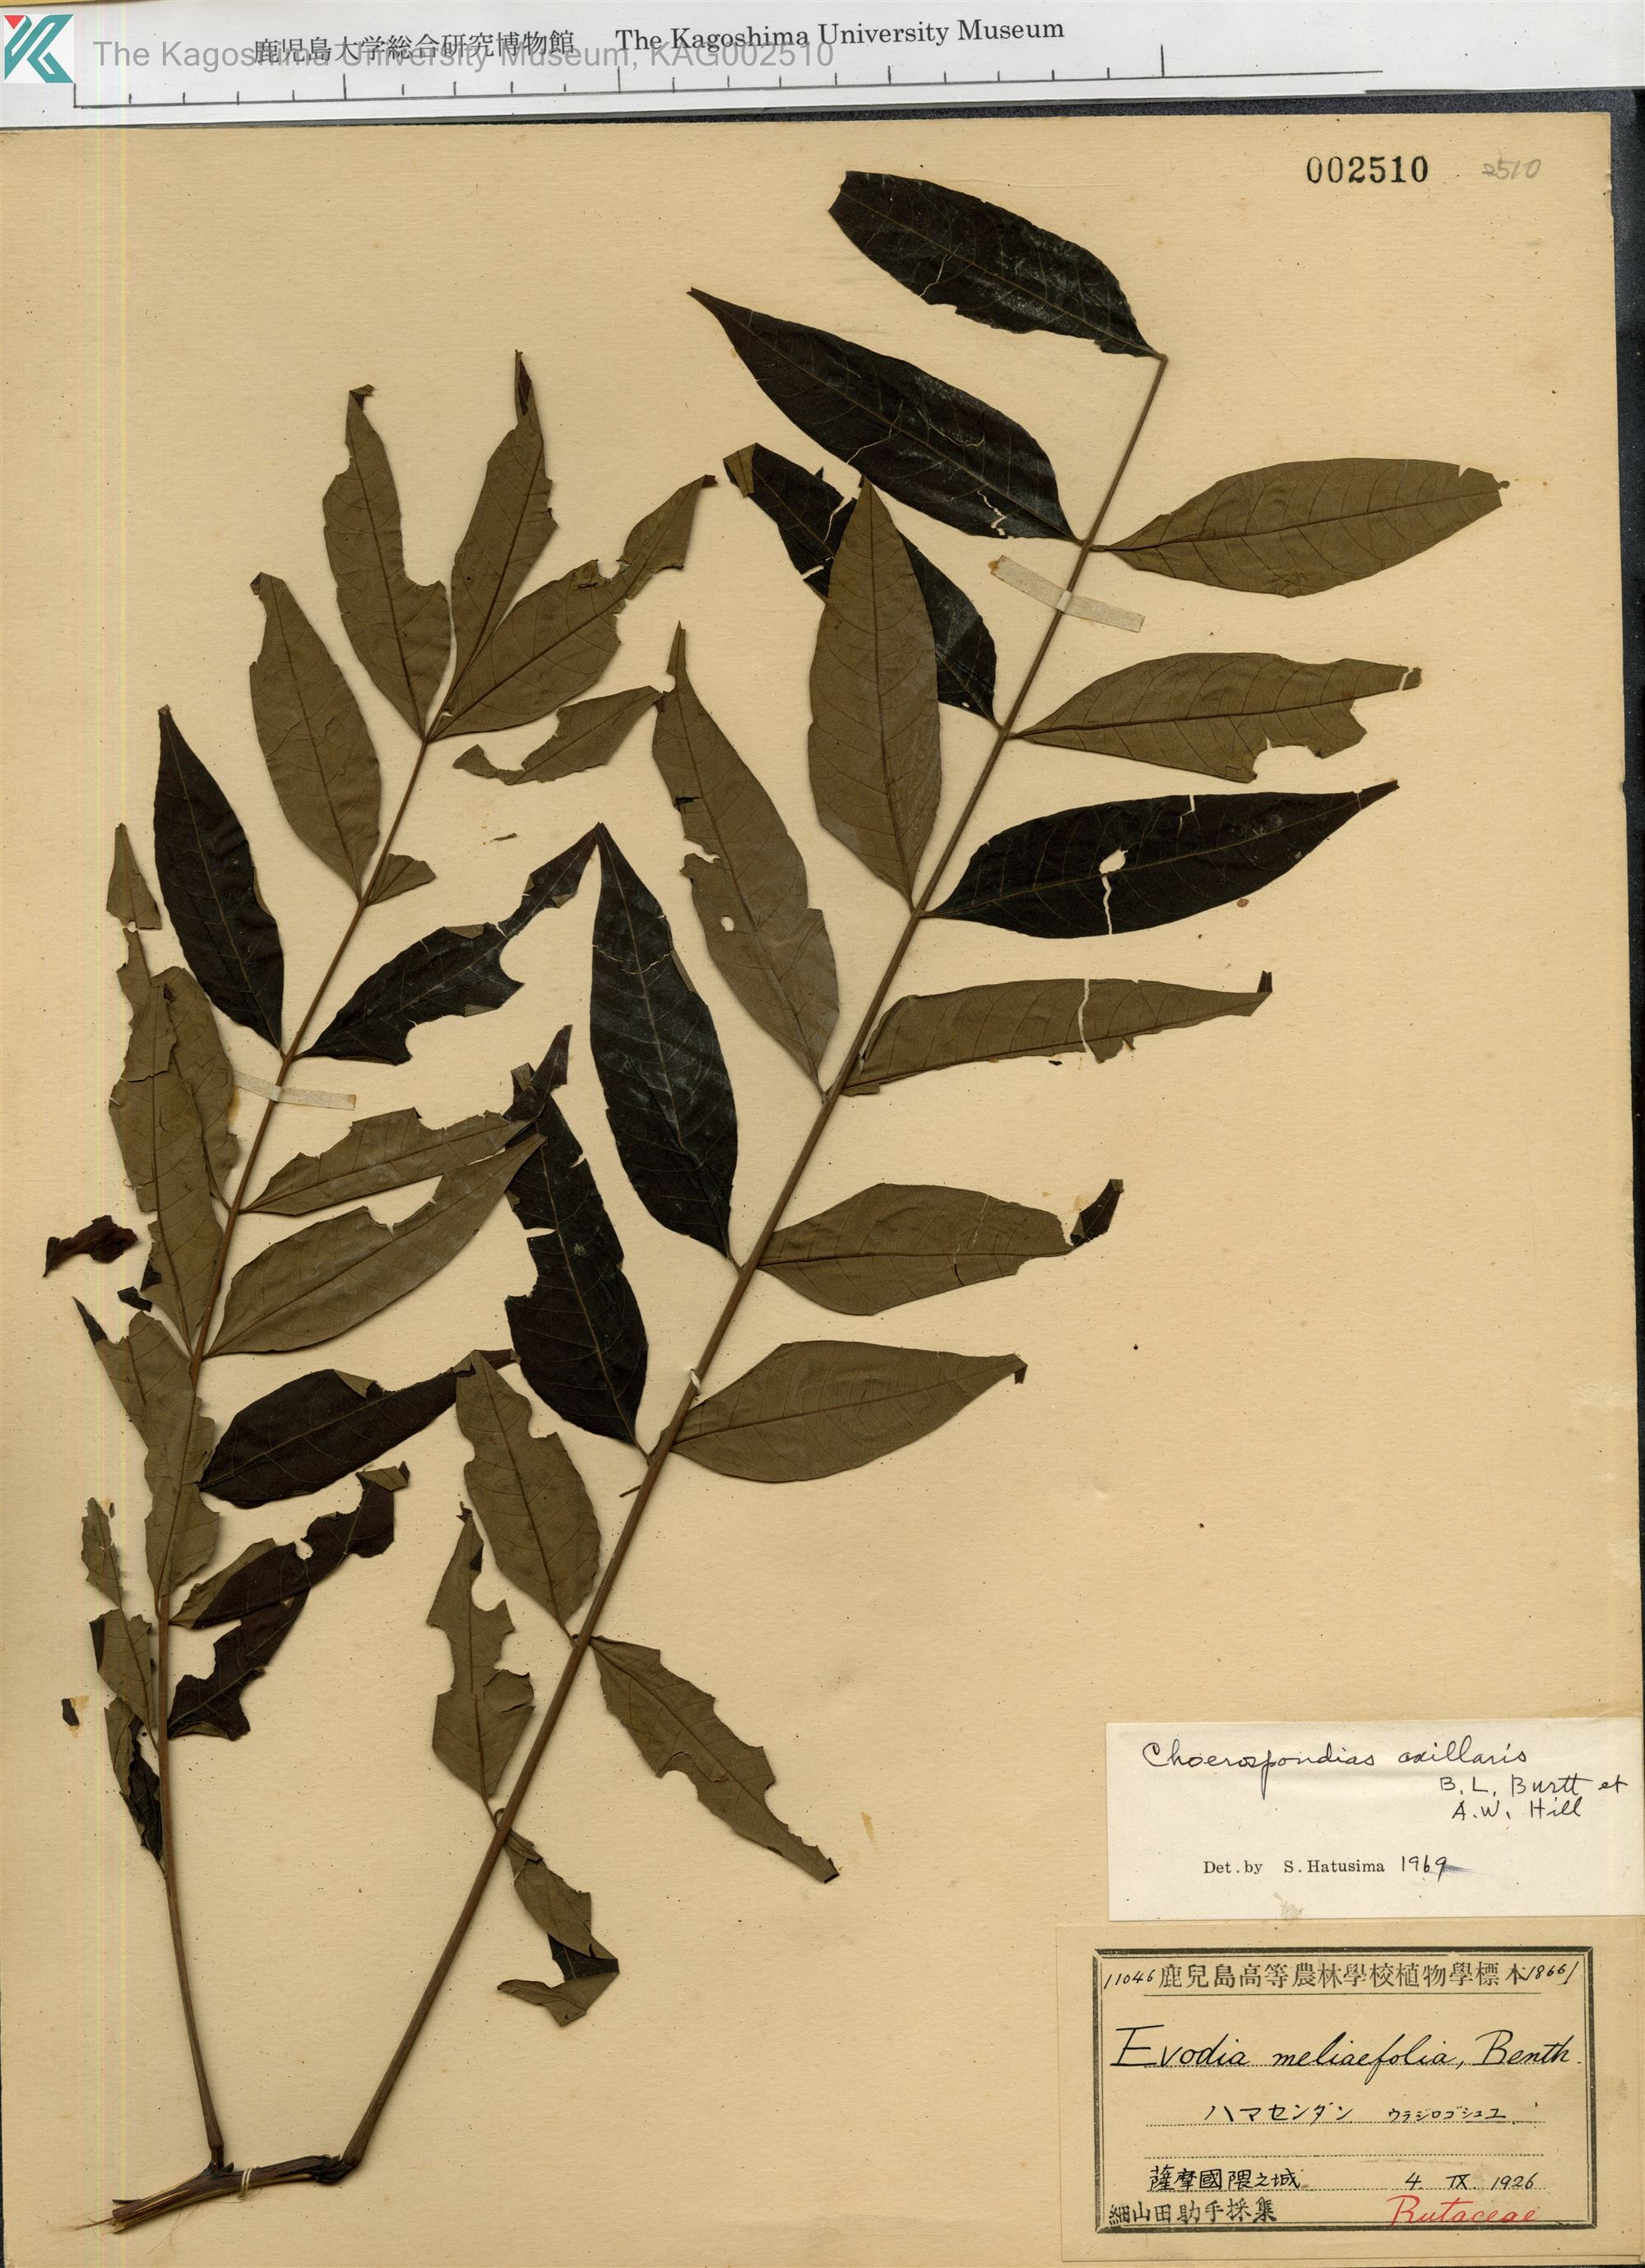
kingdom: Plantae
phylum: Tracheophyta
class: Magnoliopsida
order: Sapindales
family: Anacardiaceae
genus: Choerospondias
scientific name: Choerospondias axillaris
